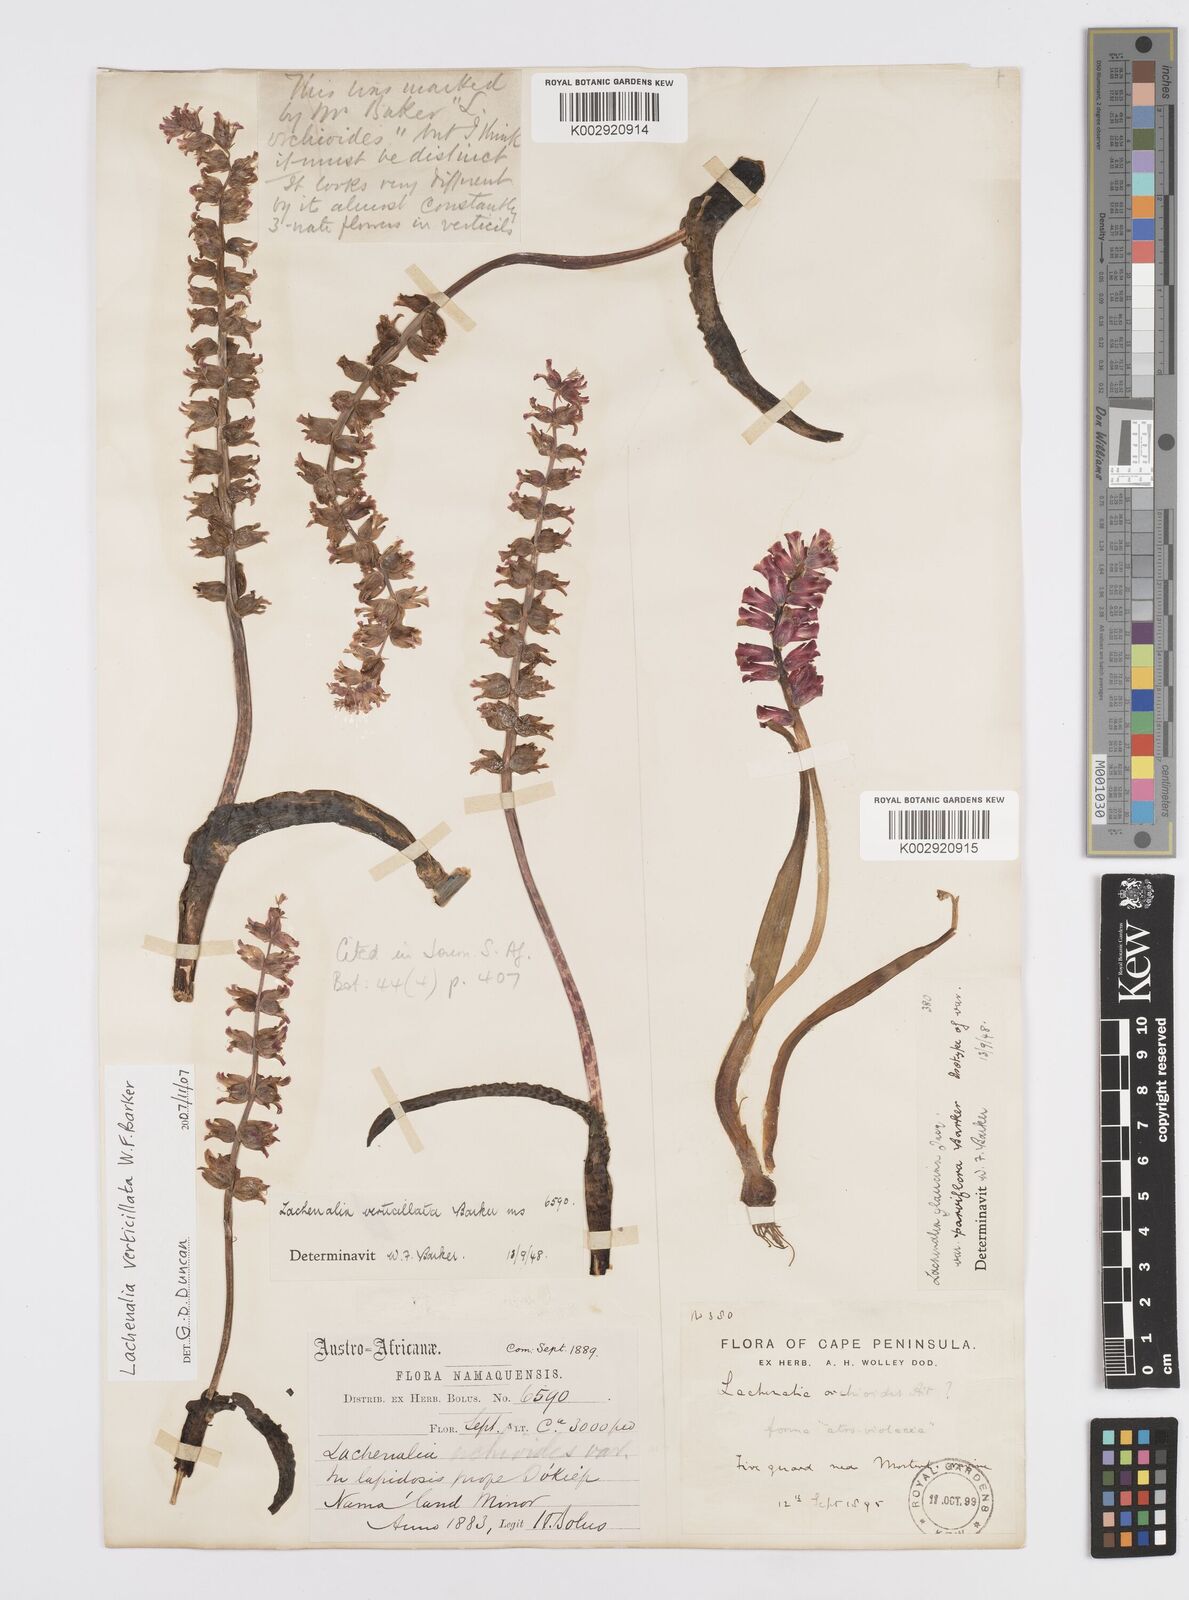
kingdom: Plantae
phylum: Tracheophyta
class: Liliopsida
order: Asparagales
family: Asparagaceae
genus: Lachenalia
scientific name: Lachenalia verticillata
